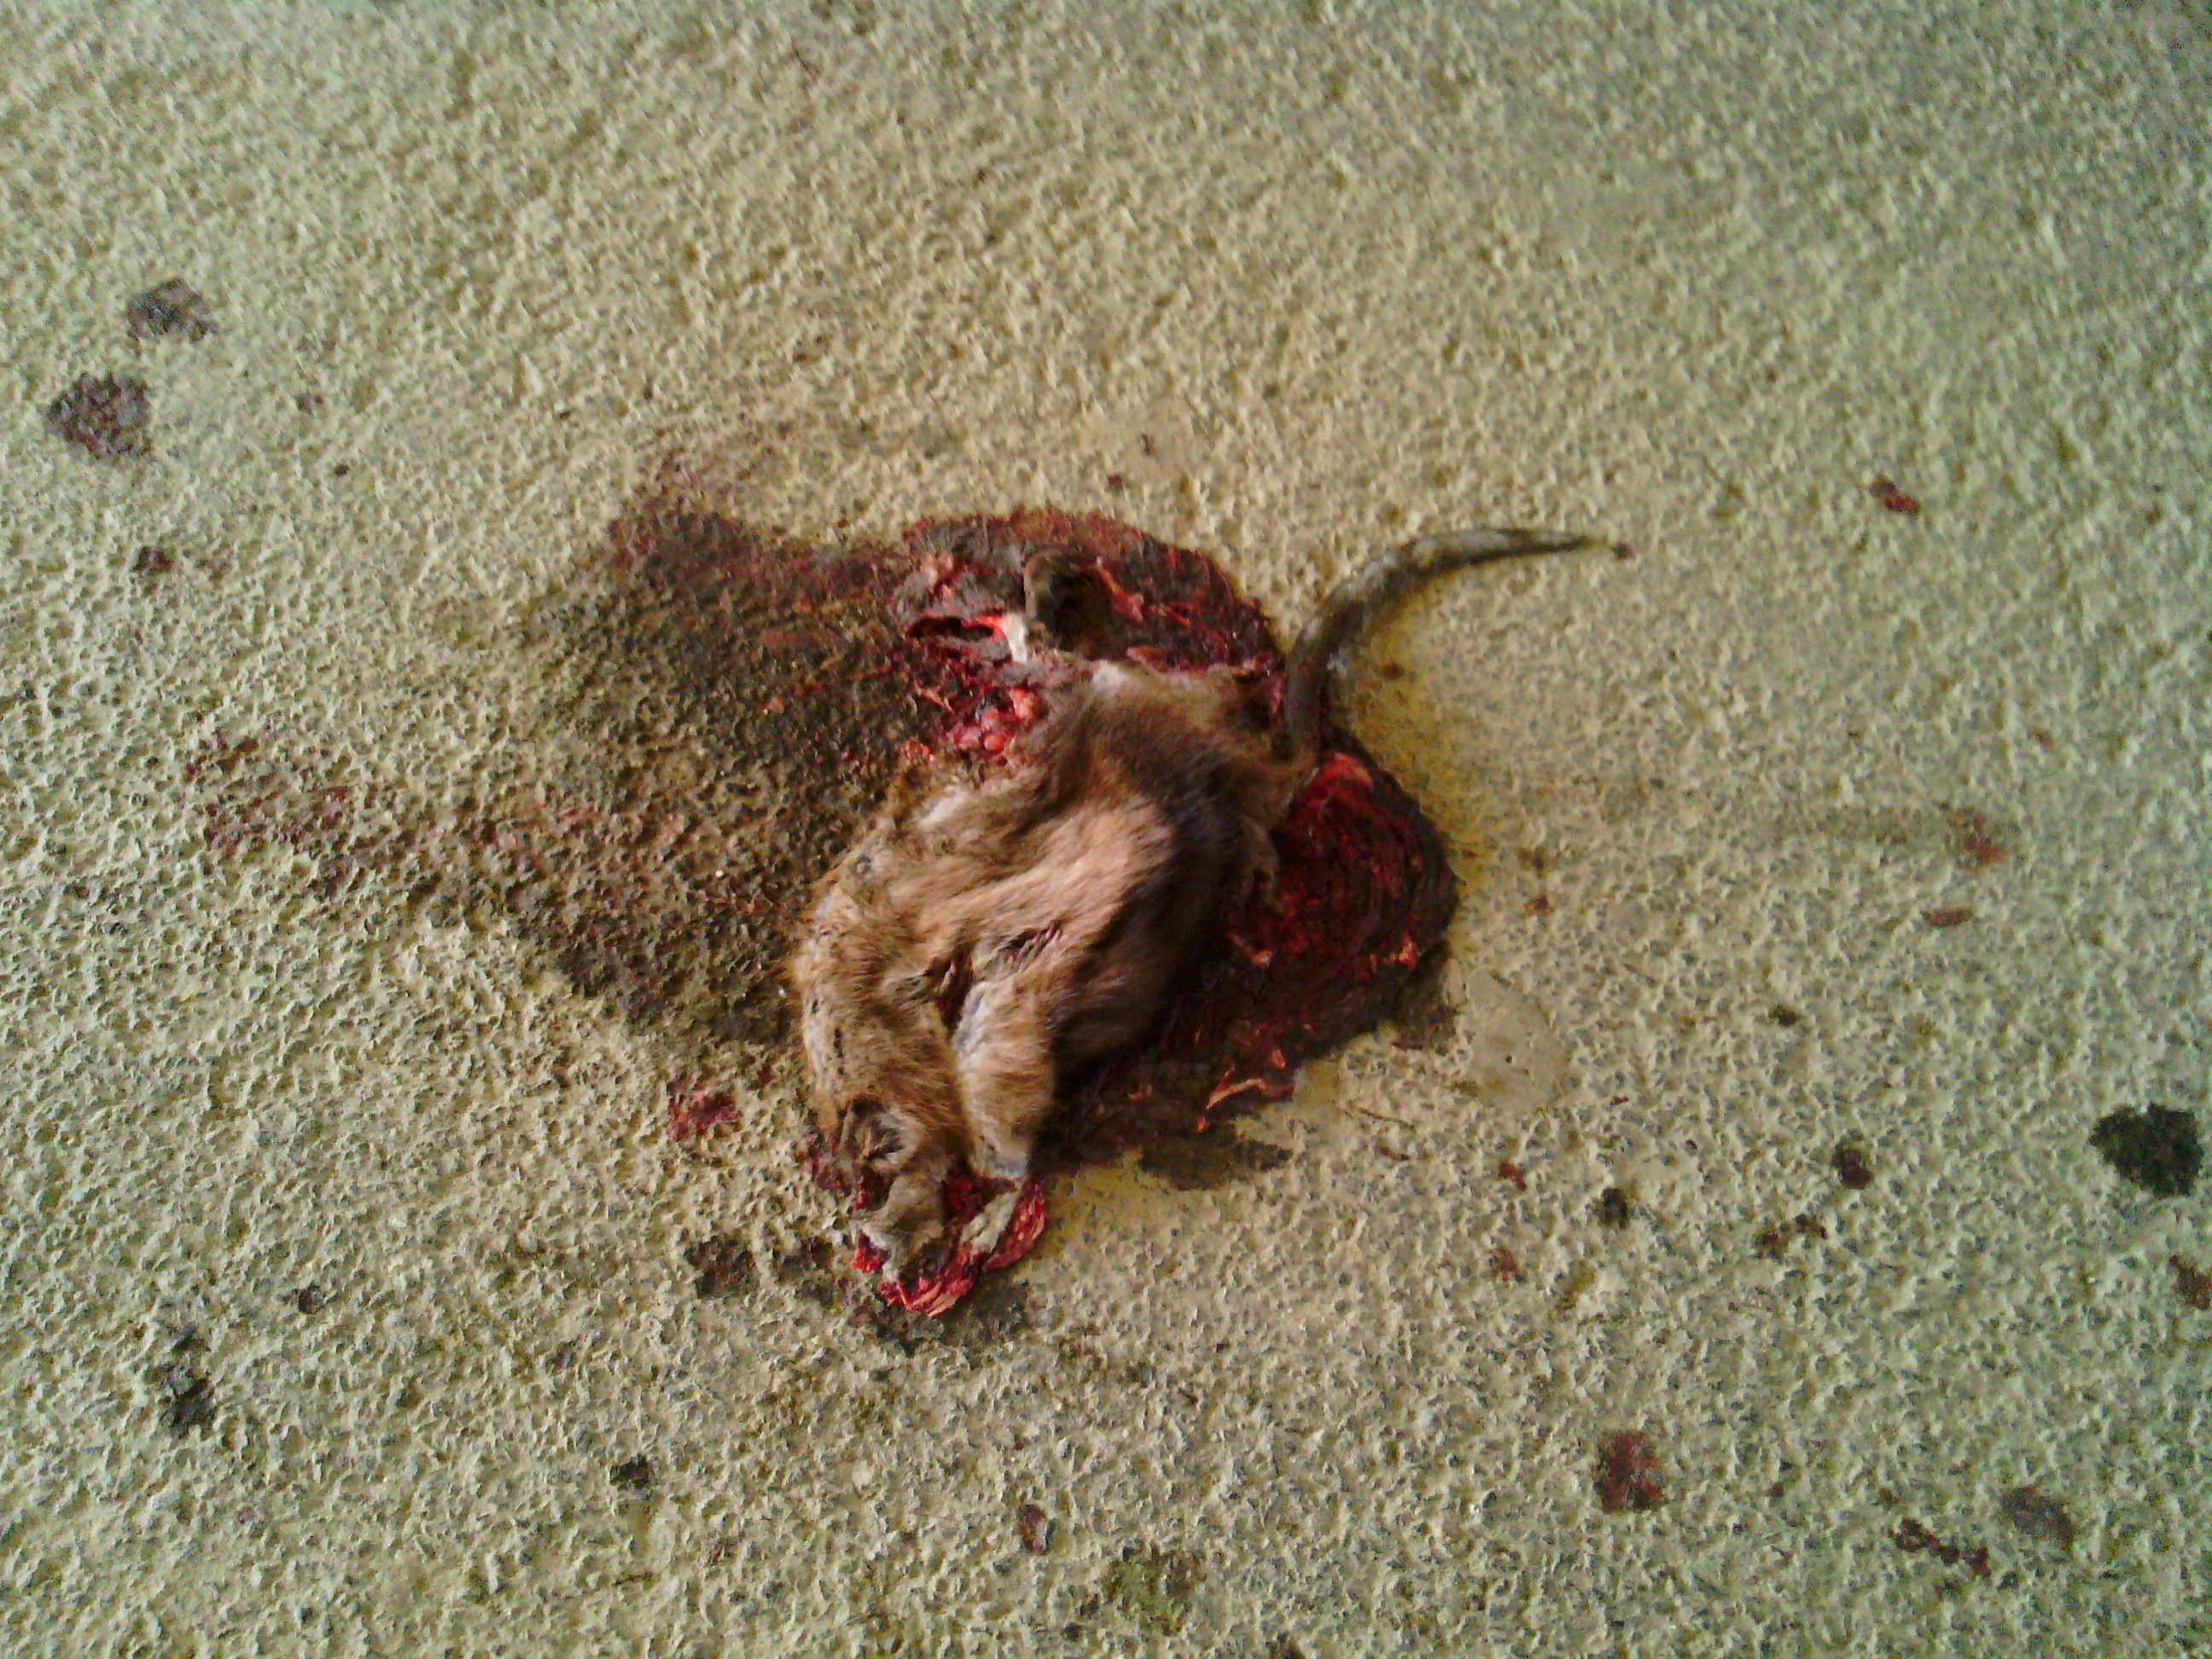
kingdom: Animalia
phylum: Chordata
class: Mammalia
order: Rodentia
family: Cricetidae
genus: Ondatra
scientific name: Ondatra zibethicus
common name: Muskrat
